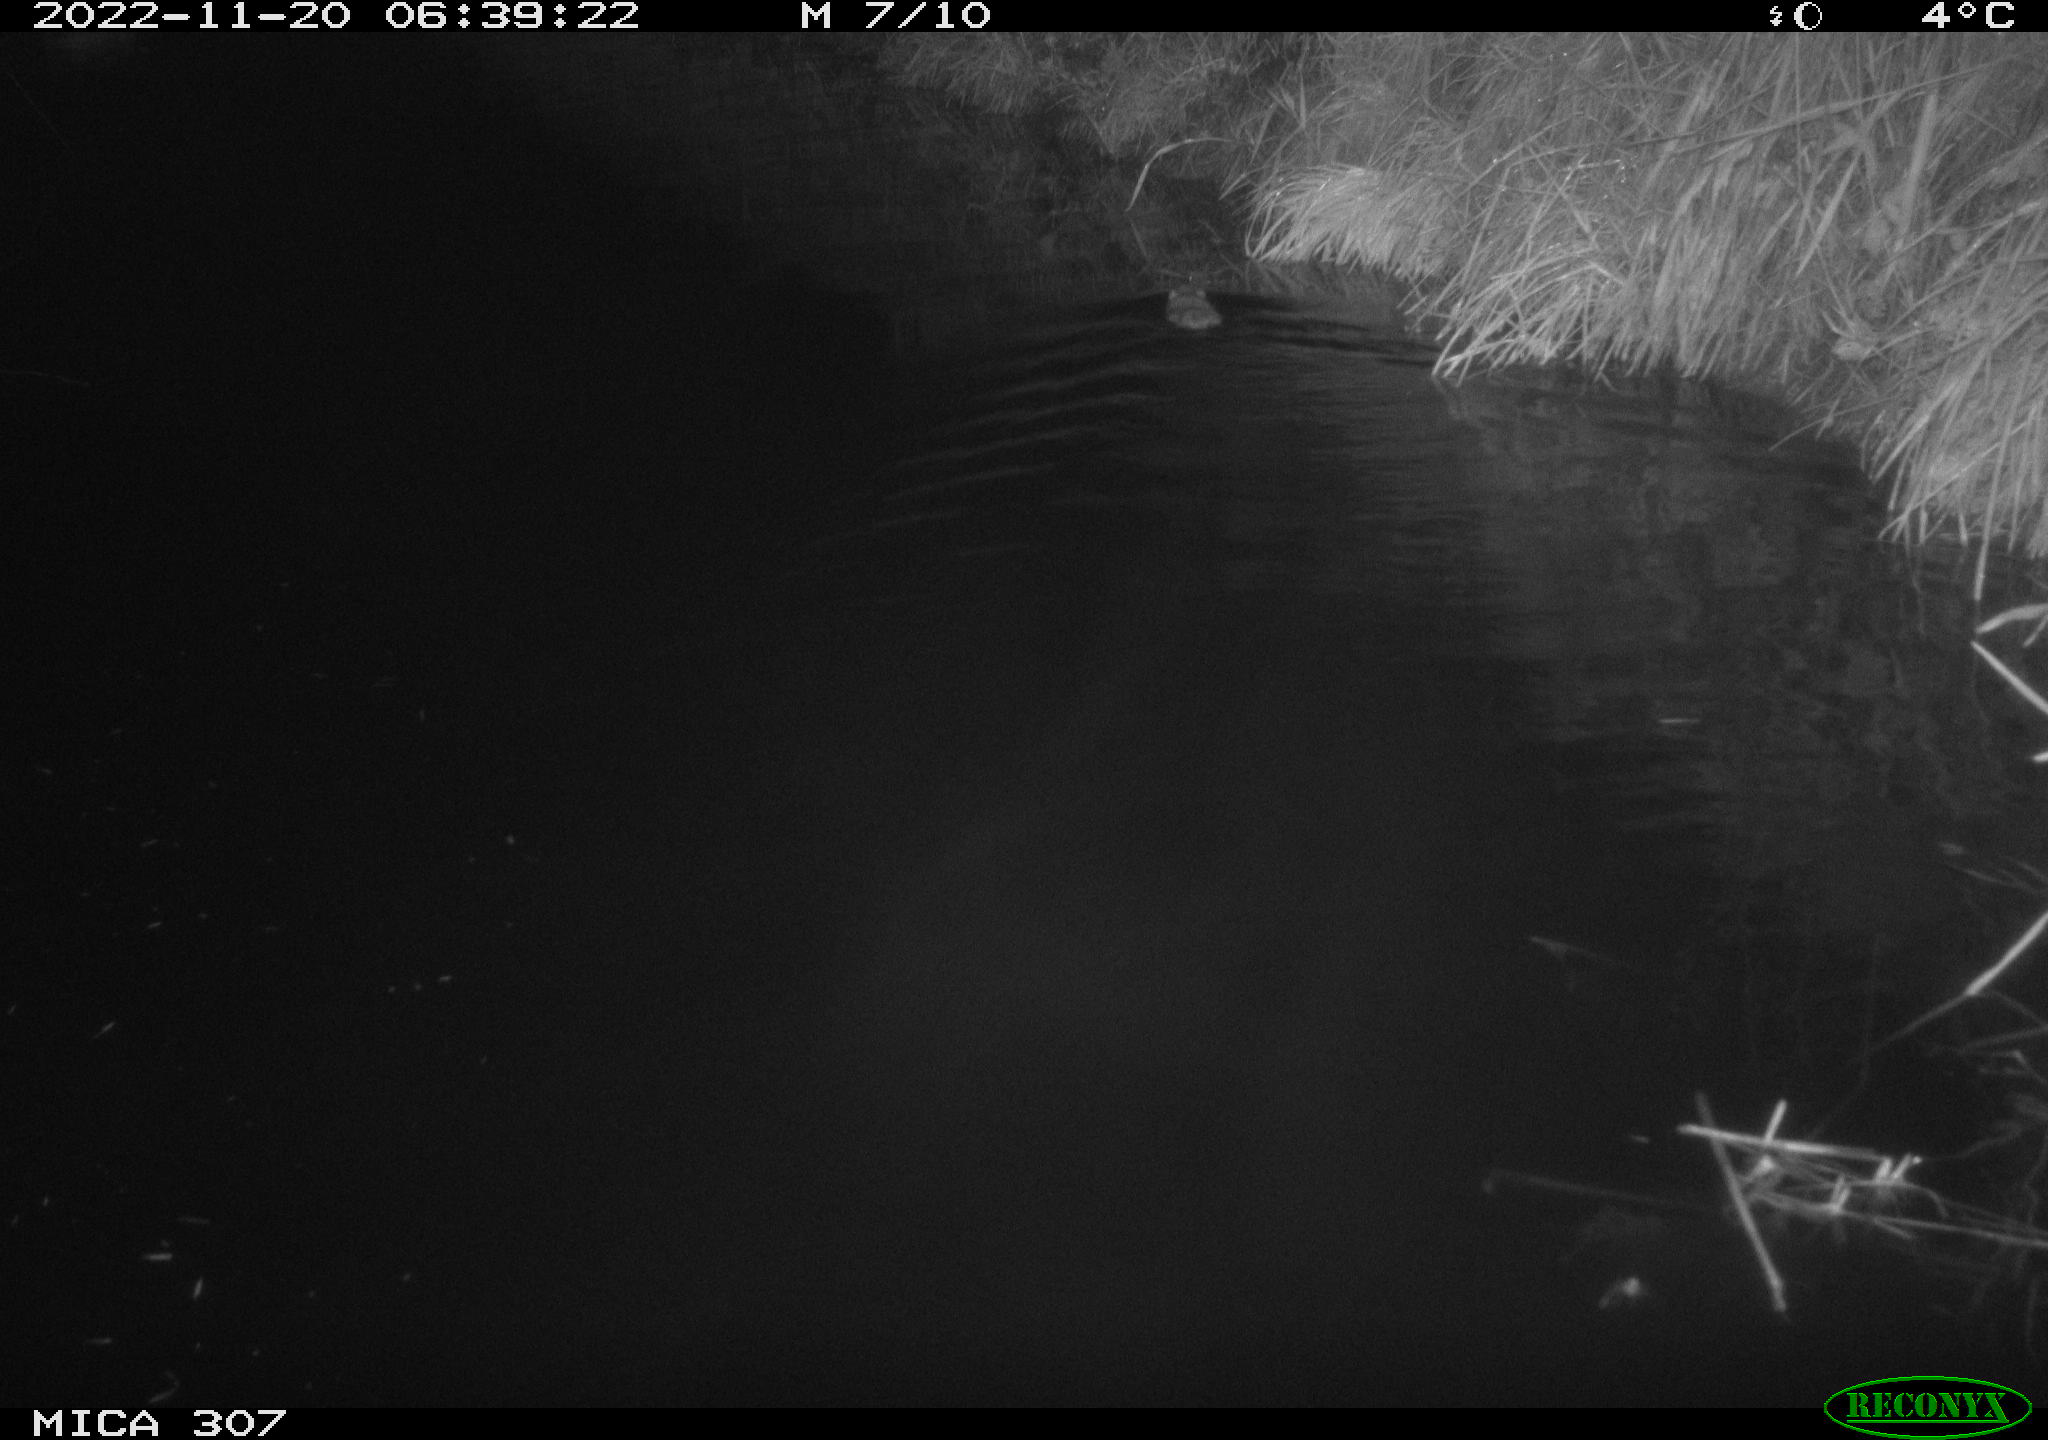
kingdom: Animalia
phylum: Chordata
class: Aves
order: Anseriformes
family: Anatidae
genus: Anas
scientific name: Anas
